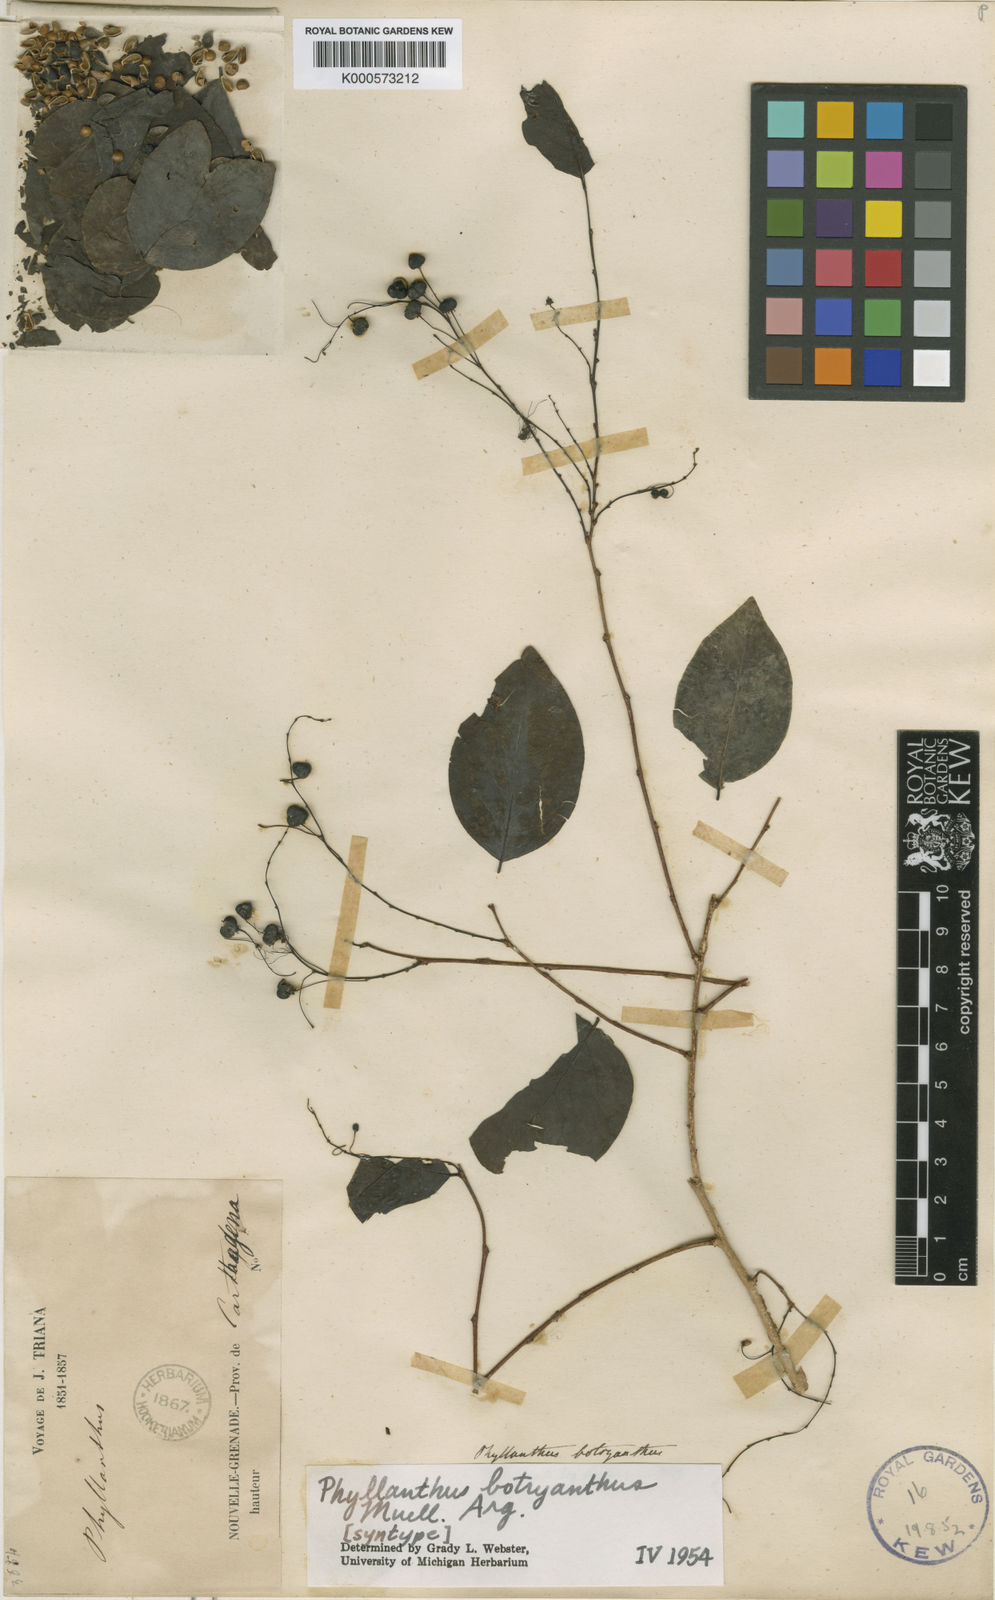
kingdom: Plantae
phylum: Tracheophyta
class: Magnoliopsida
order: Malpighiales
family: Phyllanthaceae
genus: Phyllanthus
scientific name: Phyllanthus
